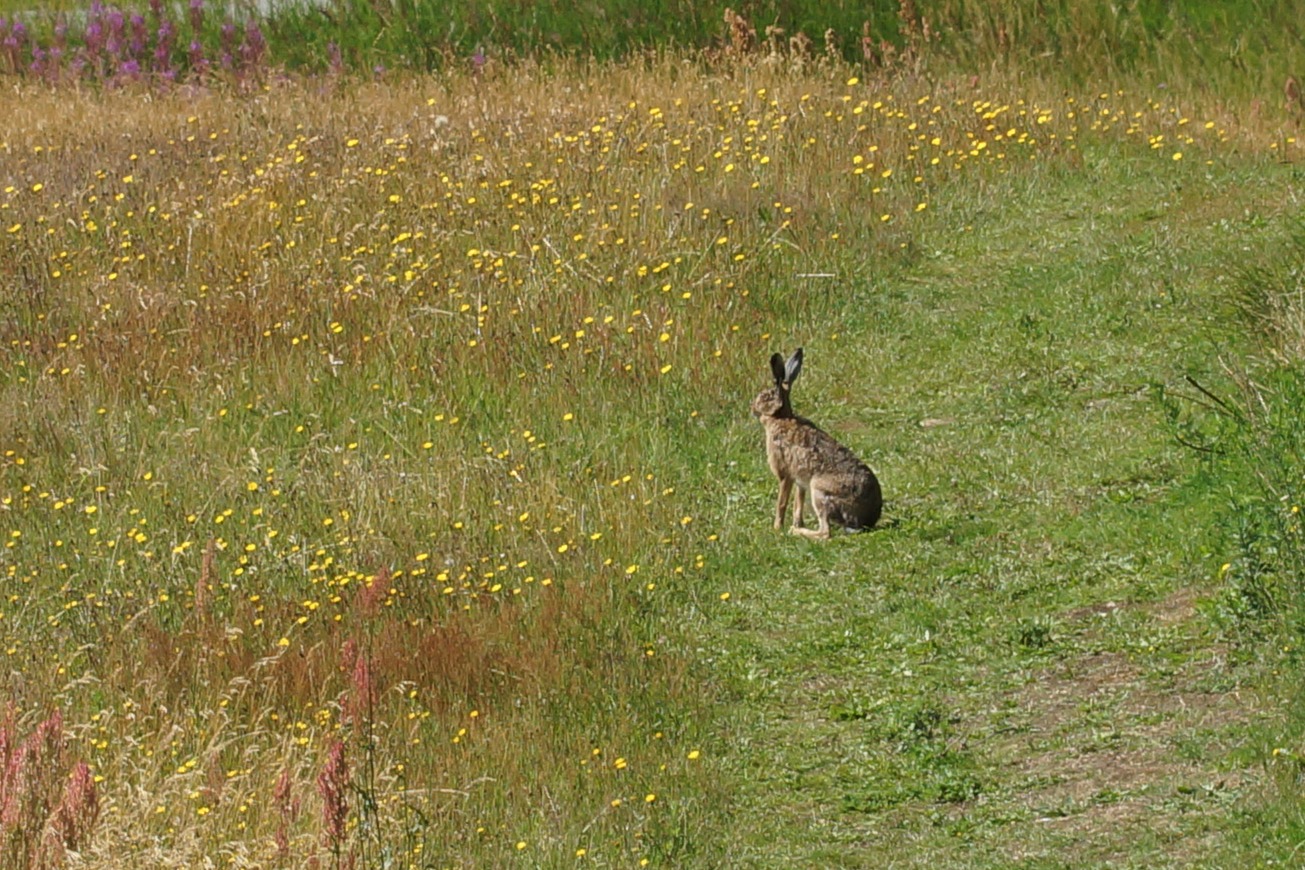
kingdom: Animalia
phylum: Chordata
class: Mammalia
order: Lagomorpha
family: Leporidae
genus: Lepus
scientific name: Lepus europaeus
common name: Hare
